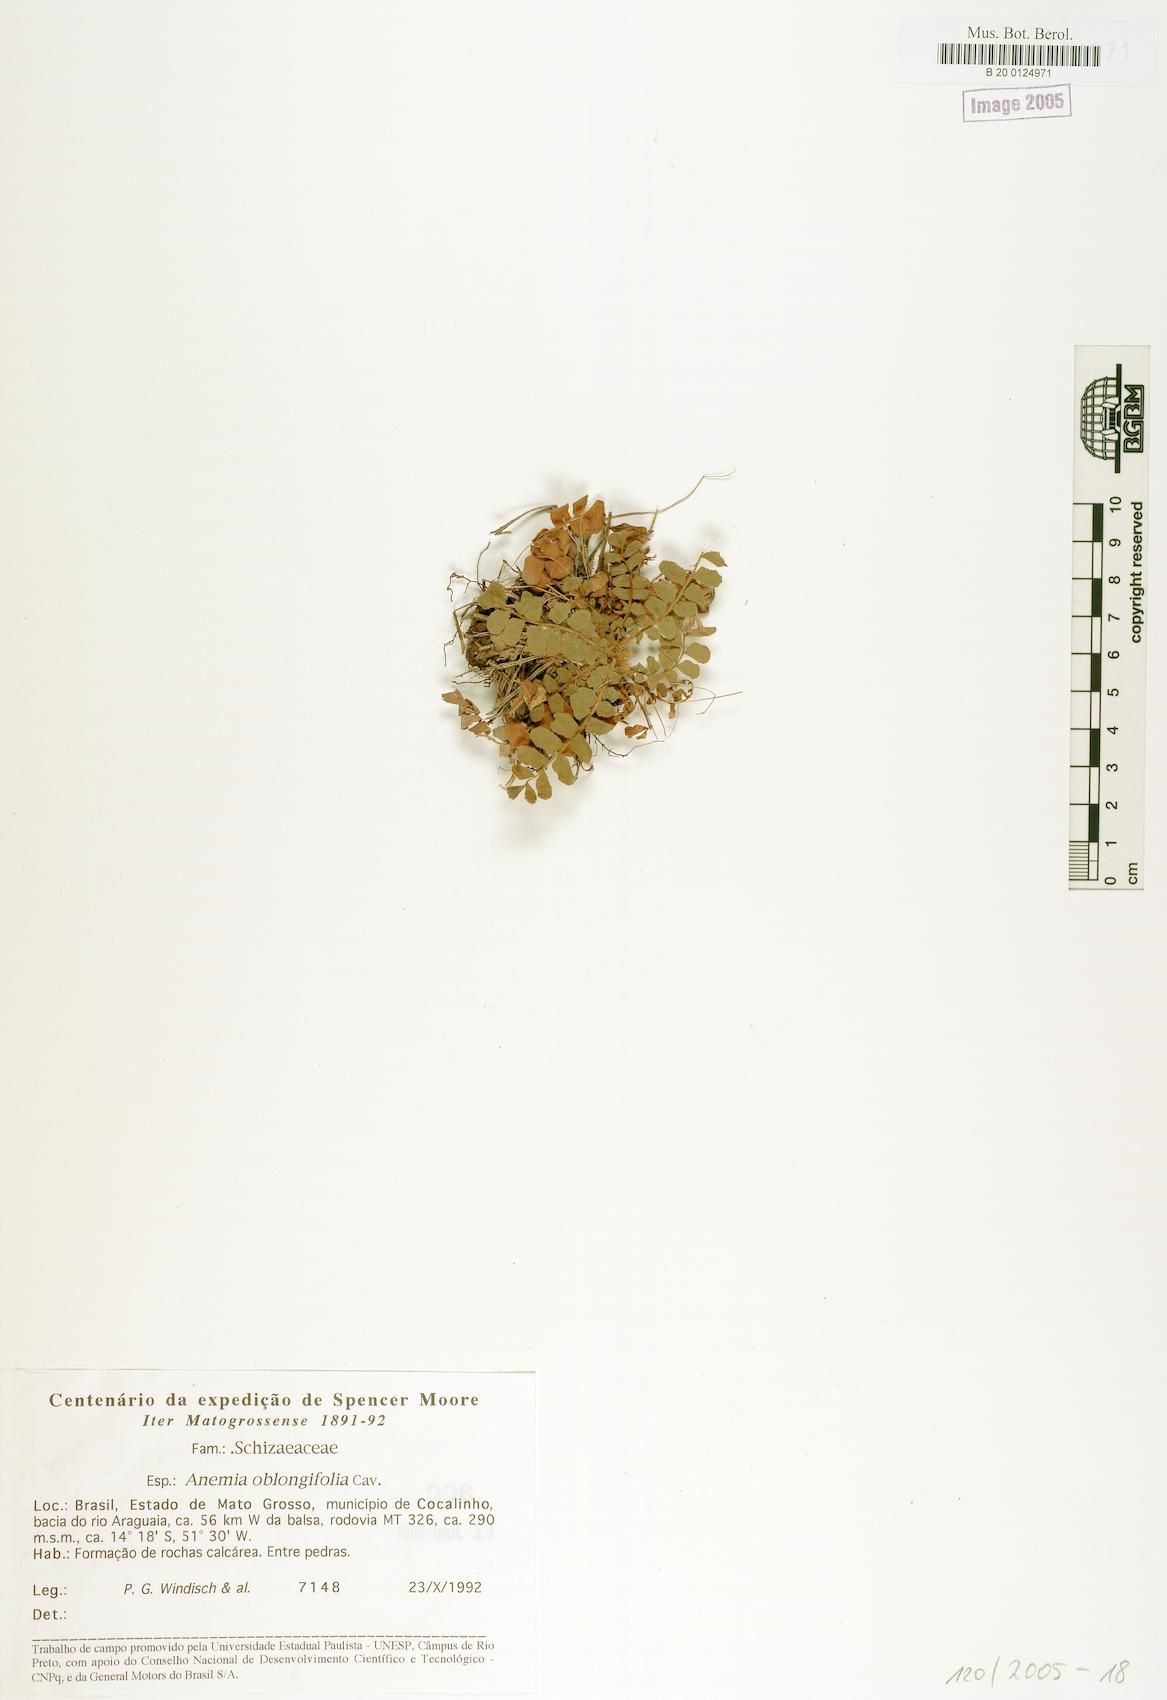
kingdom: Plantae
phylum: Tracheophyta
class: Polypodiopsida
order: Schizaeales
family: Anemiaceae
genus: Anemia
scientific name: Anemia humilis
